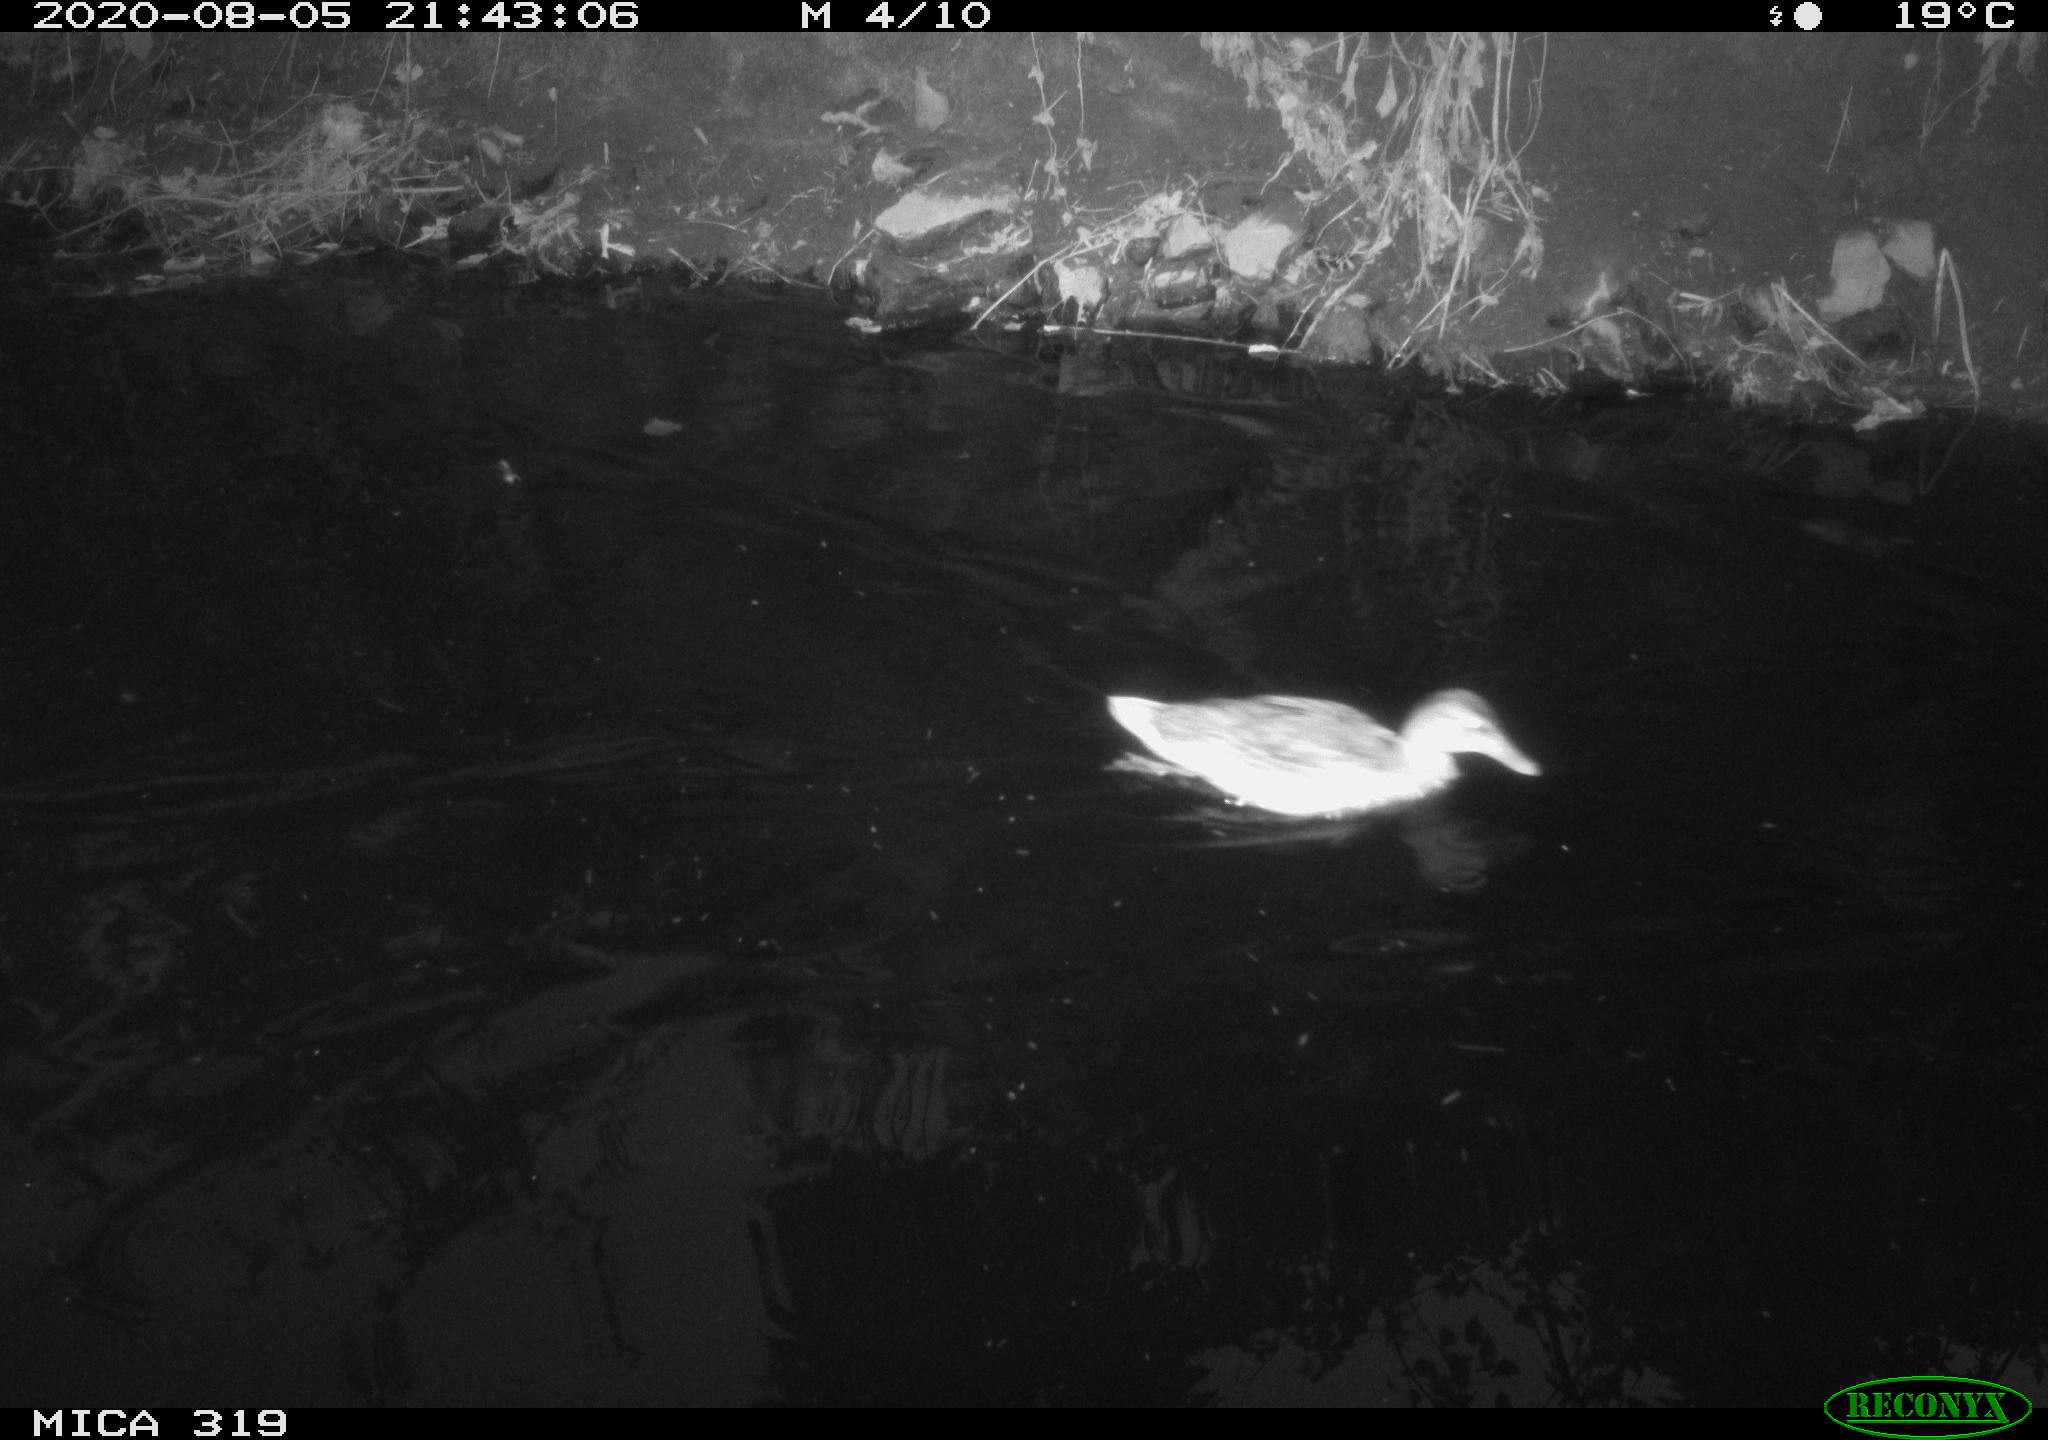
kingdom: Animalia
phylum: Chordata
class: Aves
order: Anseriformes
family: Anatidae
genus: Anas
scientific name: Anas platyrhynchos
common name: Mallard
